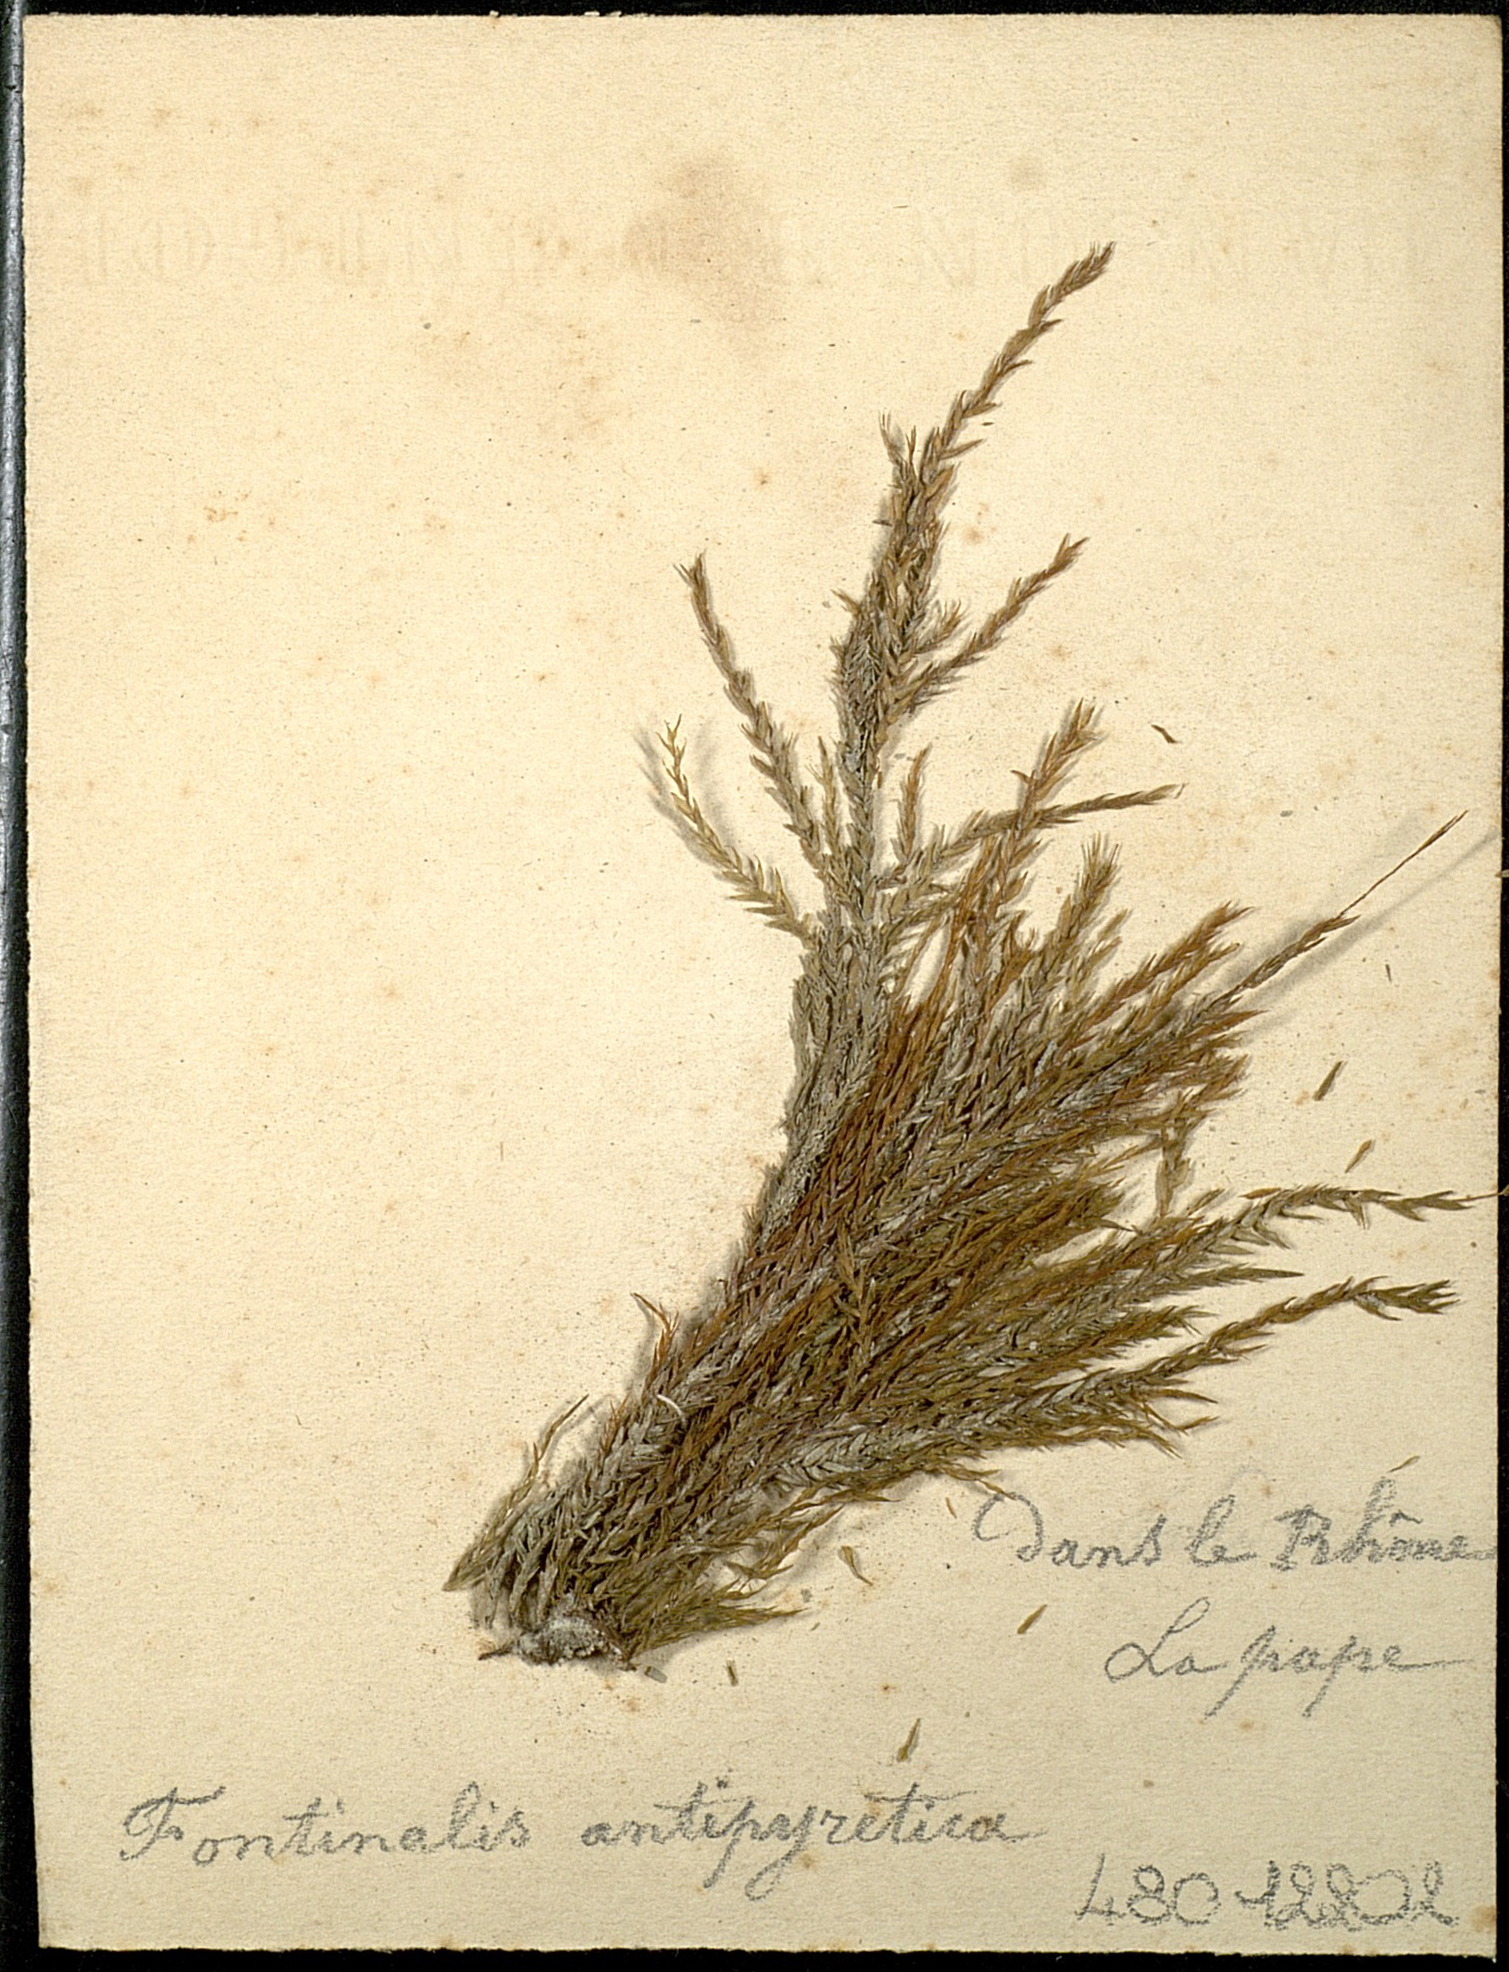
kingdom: Plantae
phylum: Bryophyta
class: Bryopsida
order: Hypnales
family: Fontinalaceae
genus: Fontinalis
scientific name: Fontinalis antipyretica
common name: Greater water-moss
